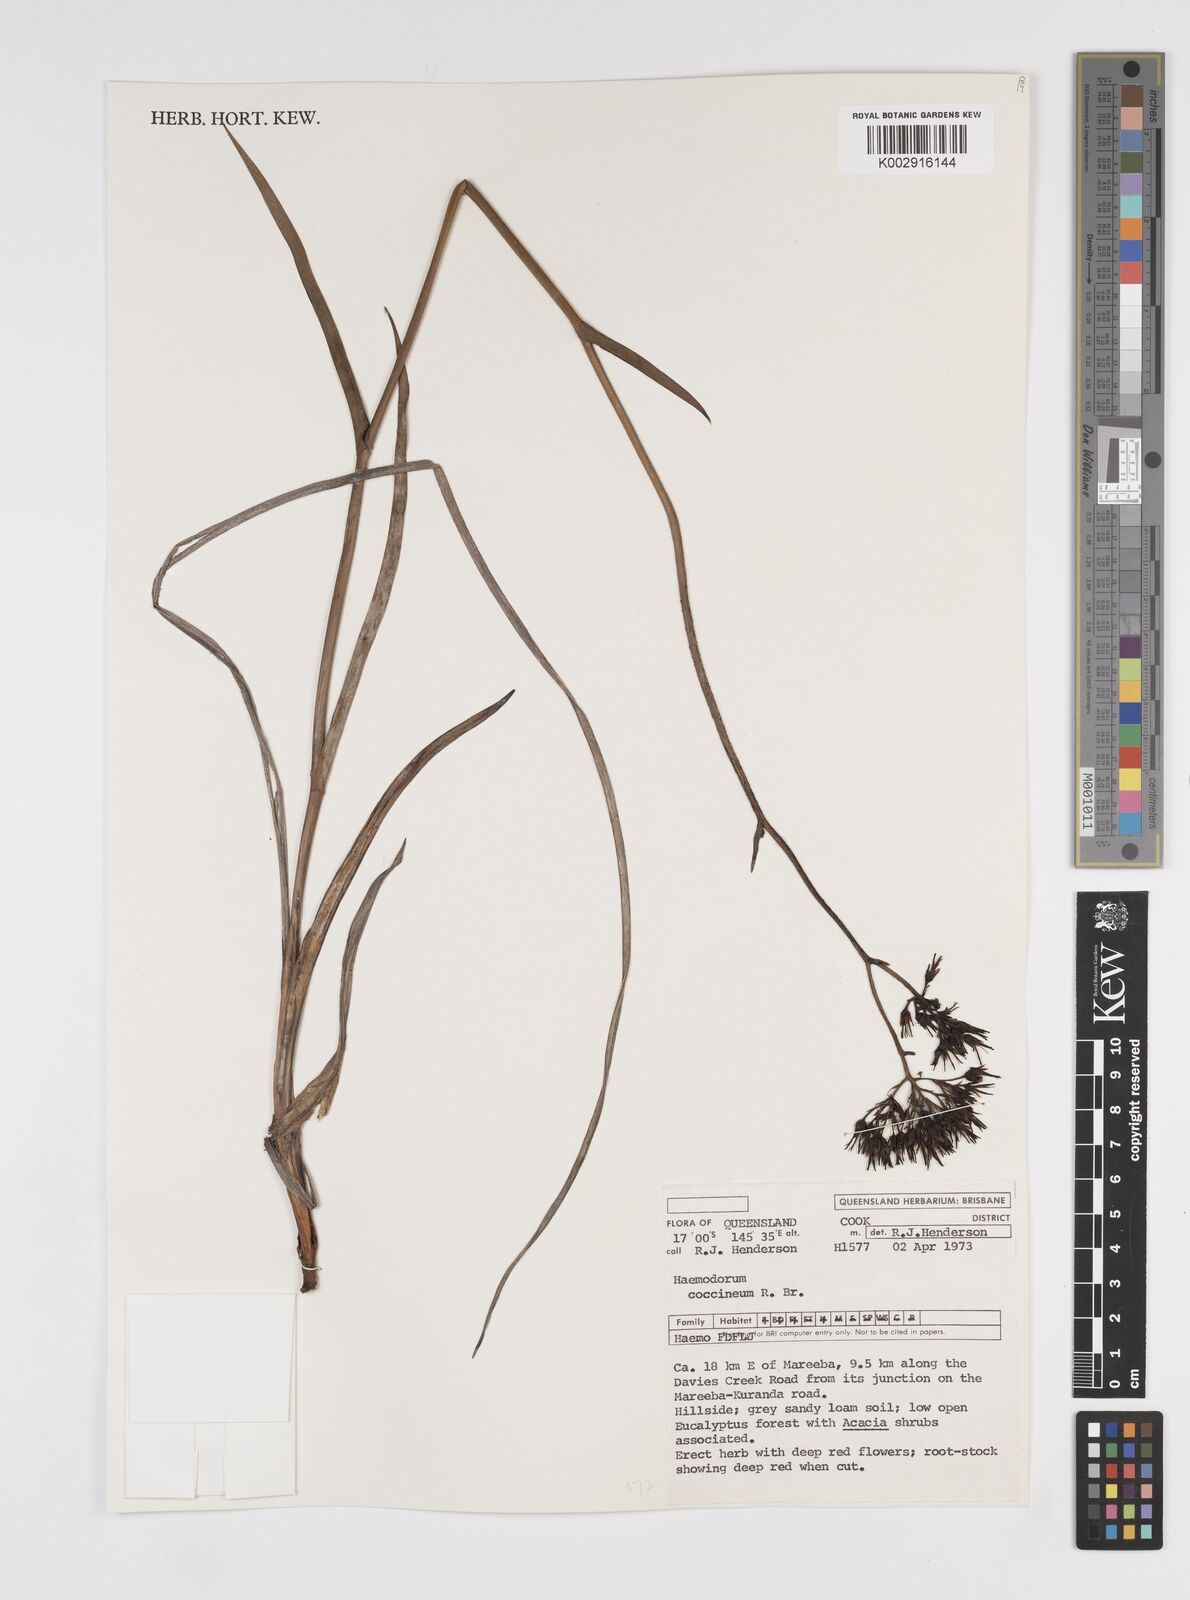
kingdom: Plantae
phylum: Tracheophyta
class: Liliopsida
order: Commelinales
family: Haemodoraceae
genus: Haemodorum
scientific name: Haemodorum coccineum
